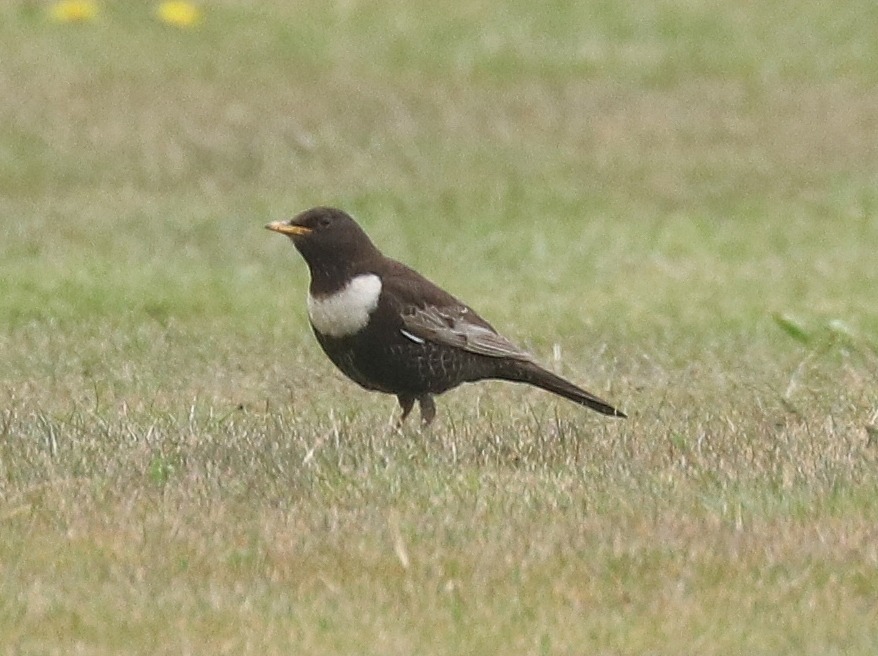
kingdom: Animalia
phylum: Chordata
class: Aves
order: Passeriformes
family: Turdidae
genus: Turdus
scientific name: Turdus torquatus
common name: Ringdrossel
